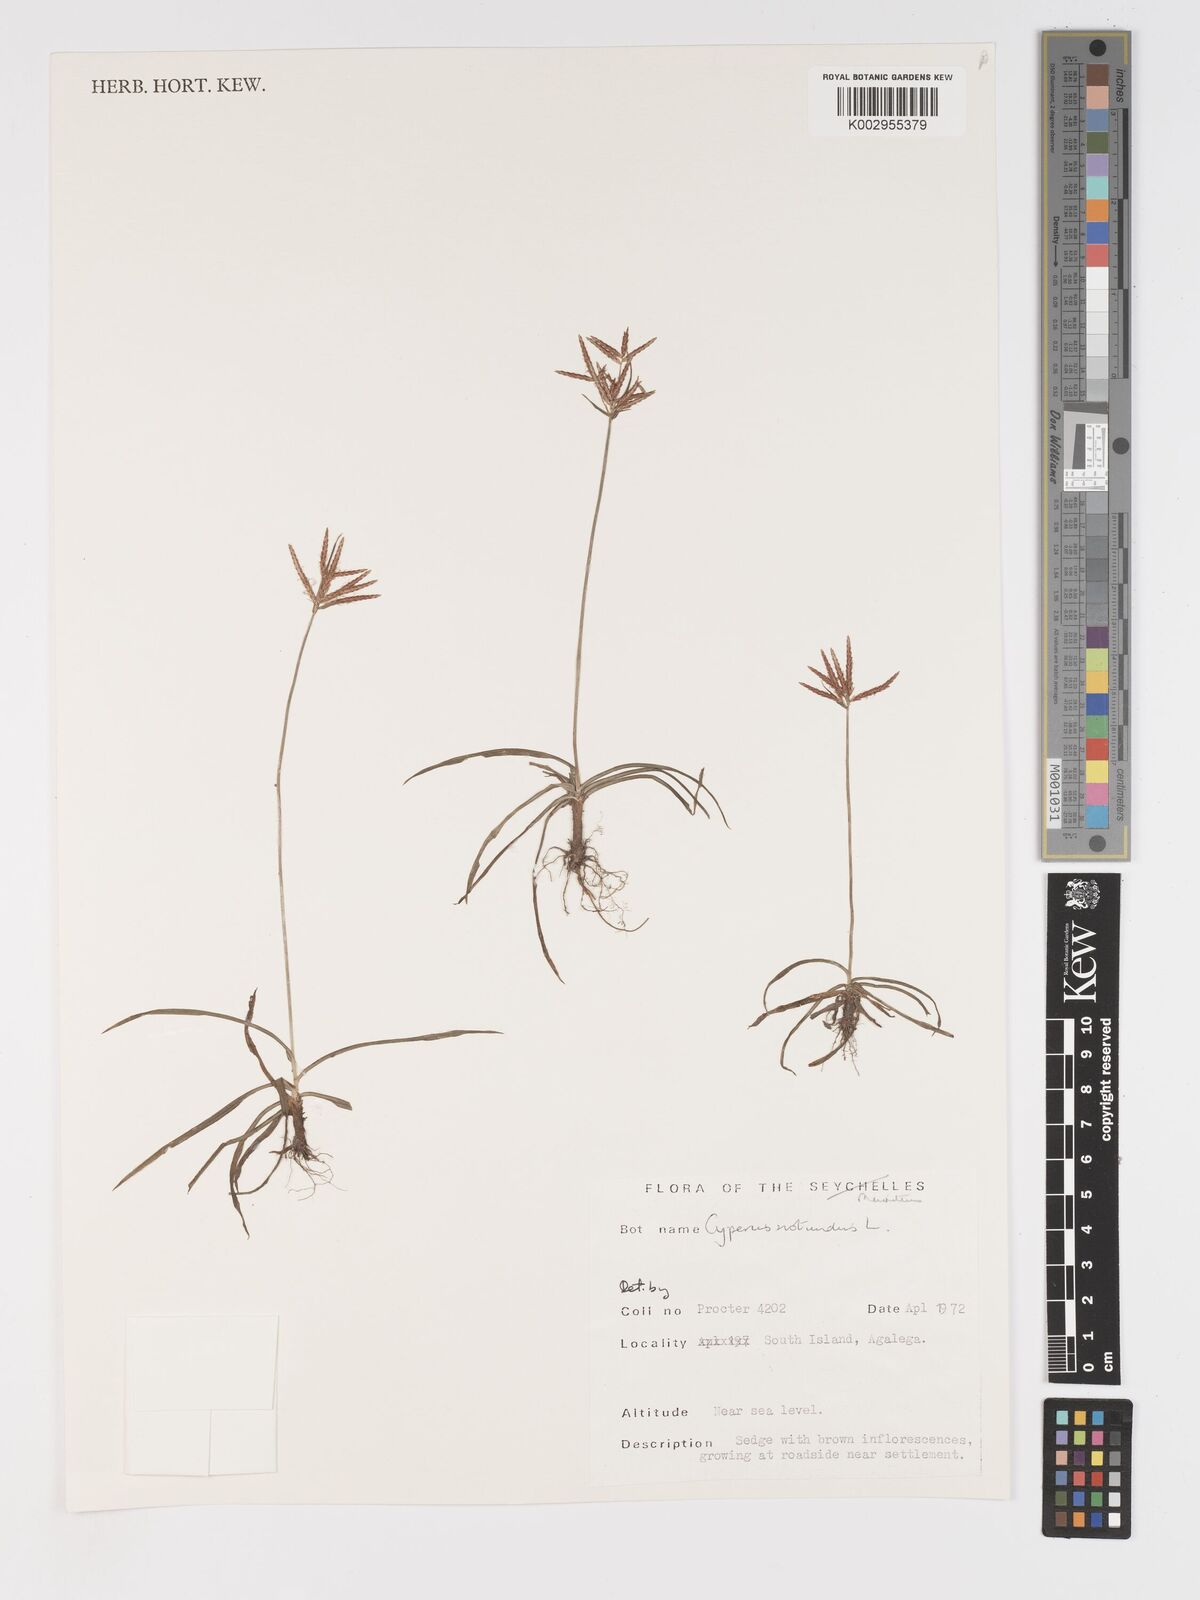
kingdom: Plantae
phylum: Tracheophyta
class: Liliopsida
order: Poales
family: Cyperaceae
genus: Cyperus
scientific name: Cyperus rotundus
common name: Nutgrass
